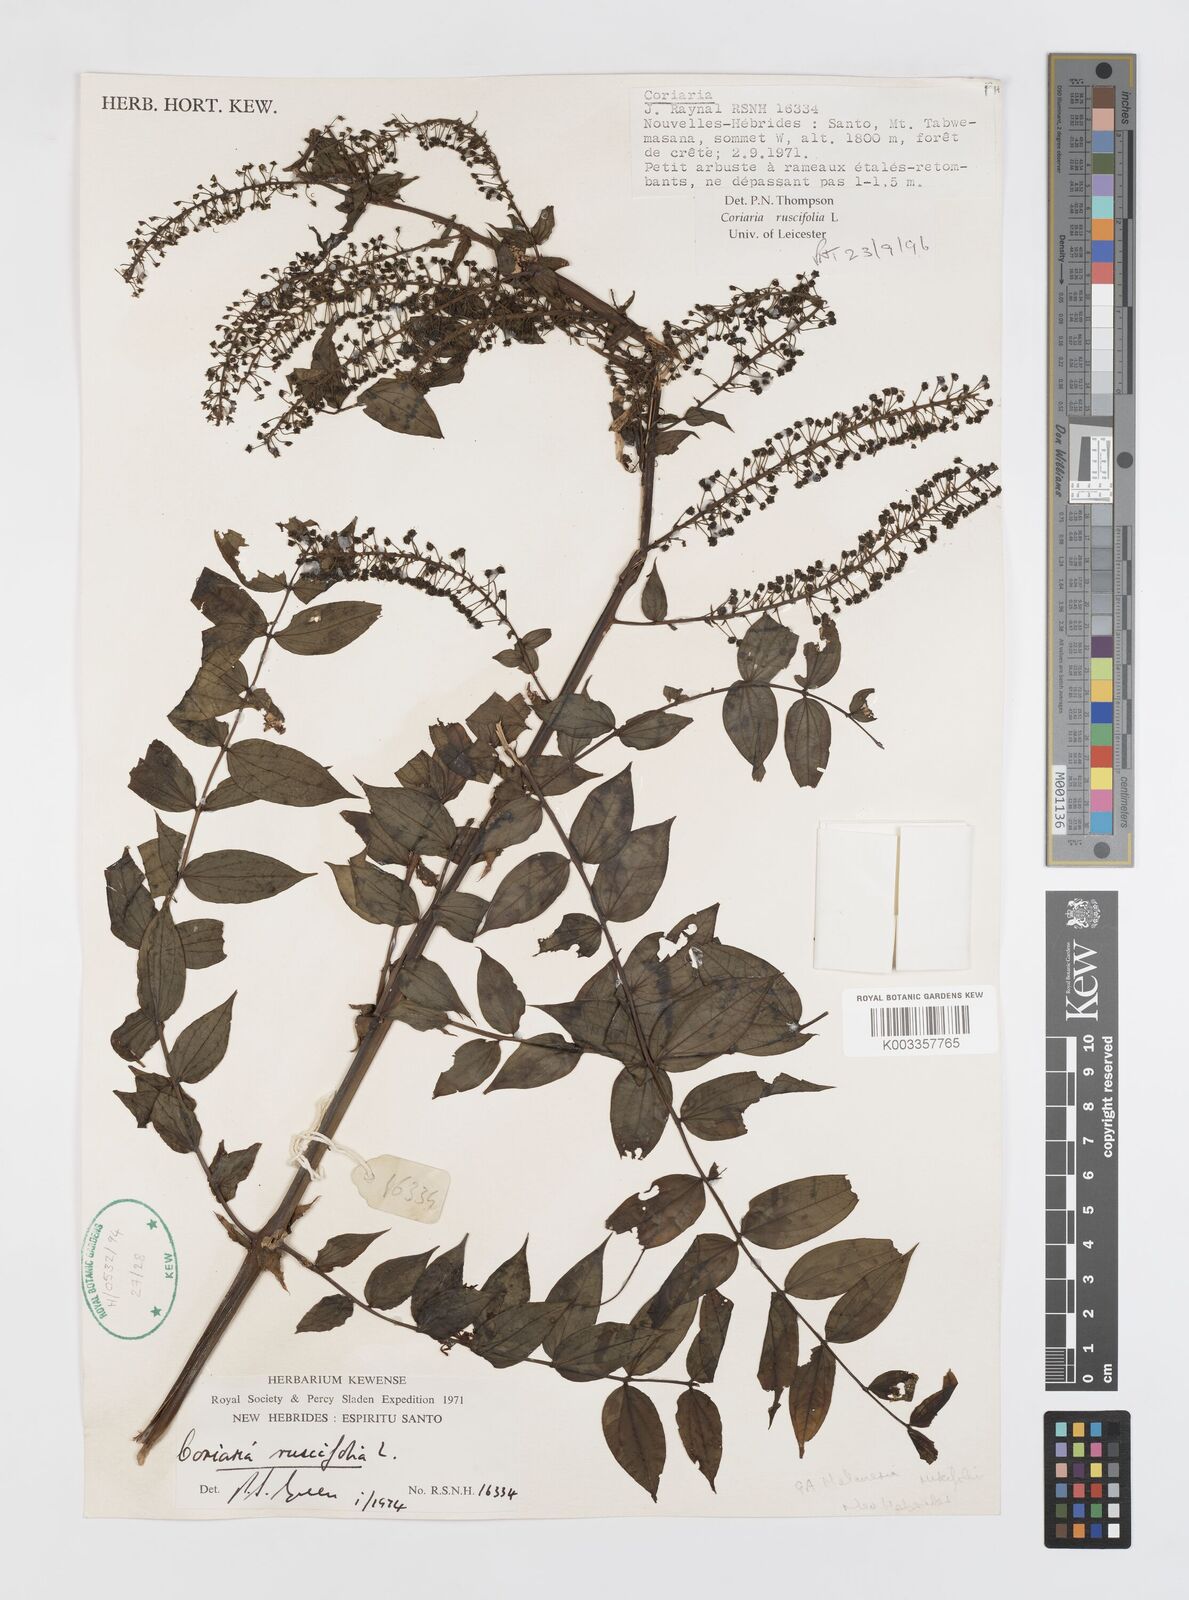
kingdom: Plantae
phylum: Tracheophyta
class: Magnoliopsida
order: Cucurbitales
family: Coriariaceae
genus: Coriaria
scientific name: Coriaria ruscifolia
